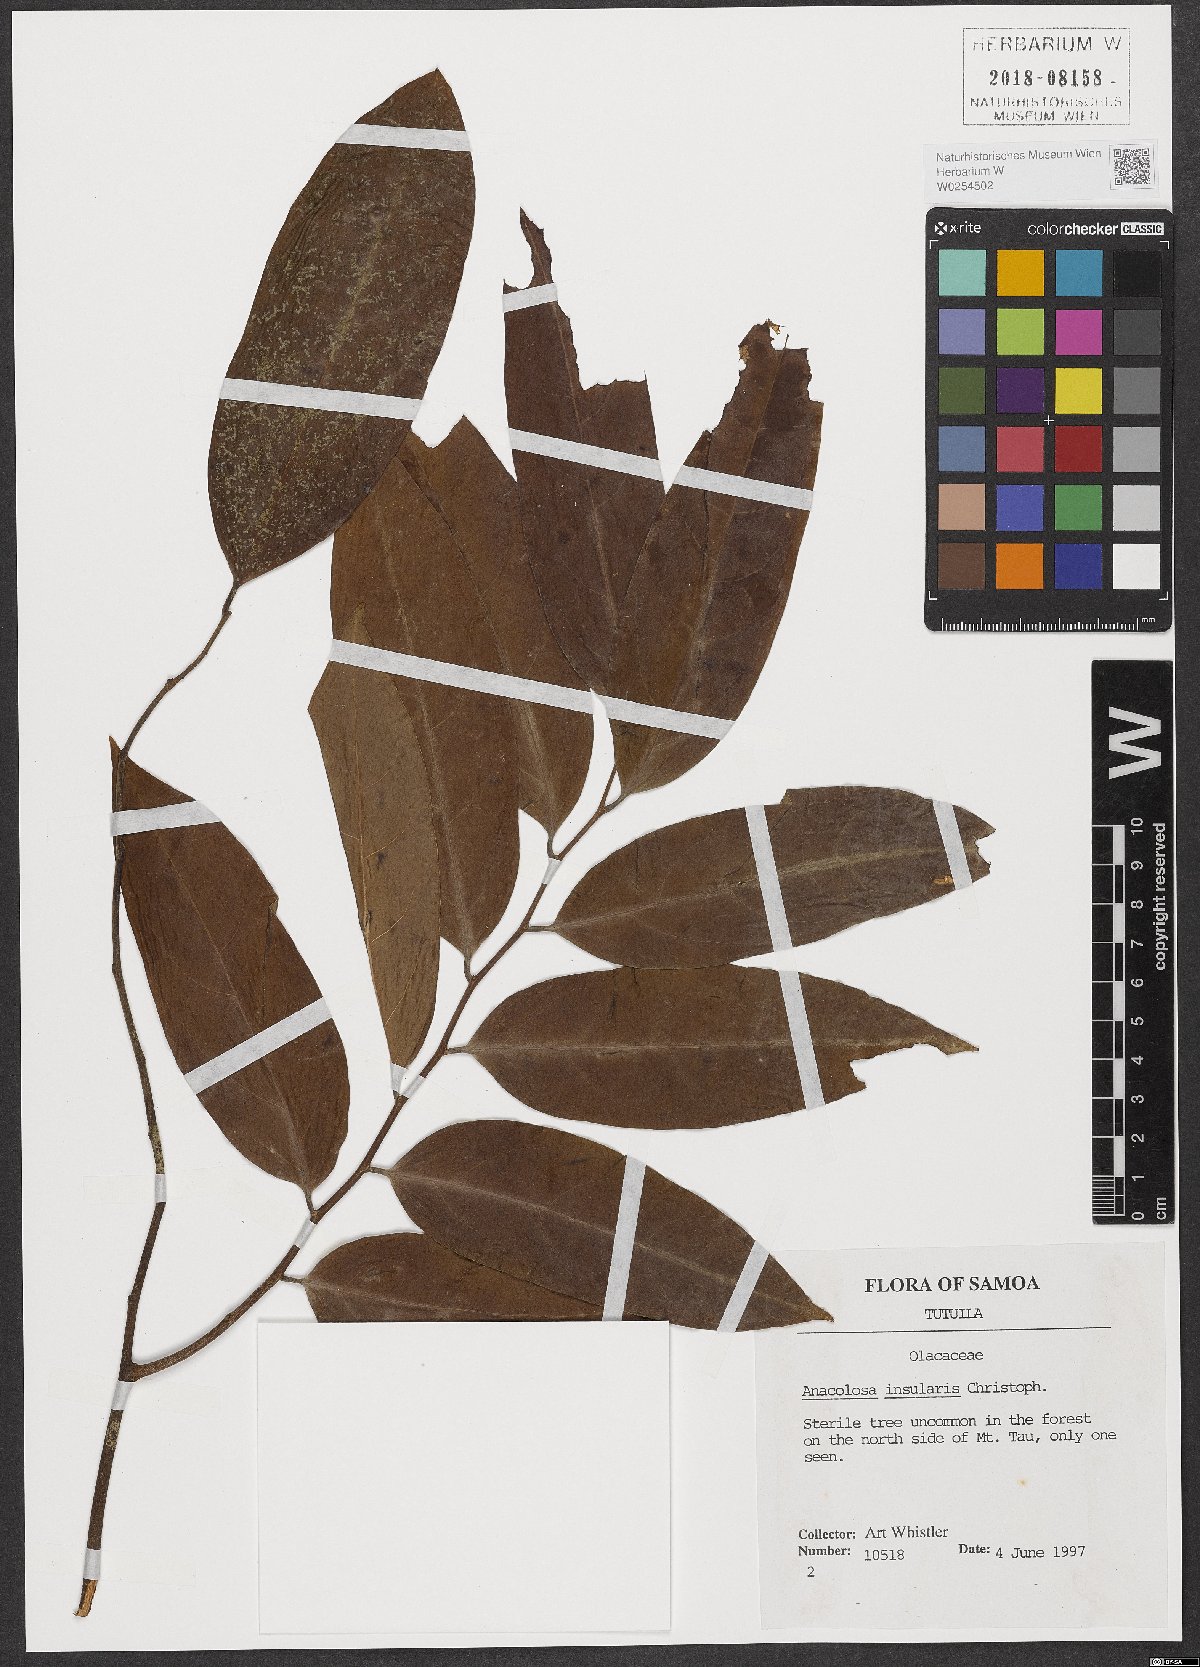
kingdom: Plantae
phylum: Tracheophyta
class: Magnoliopsida
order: Santalales
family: Aptandraceae
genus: Anacolosa
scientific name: Anacolosa insularis
